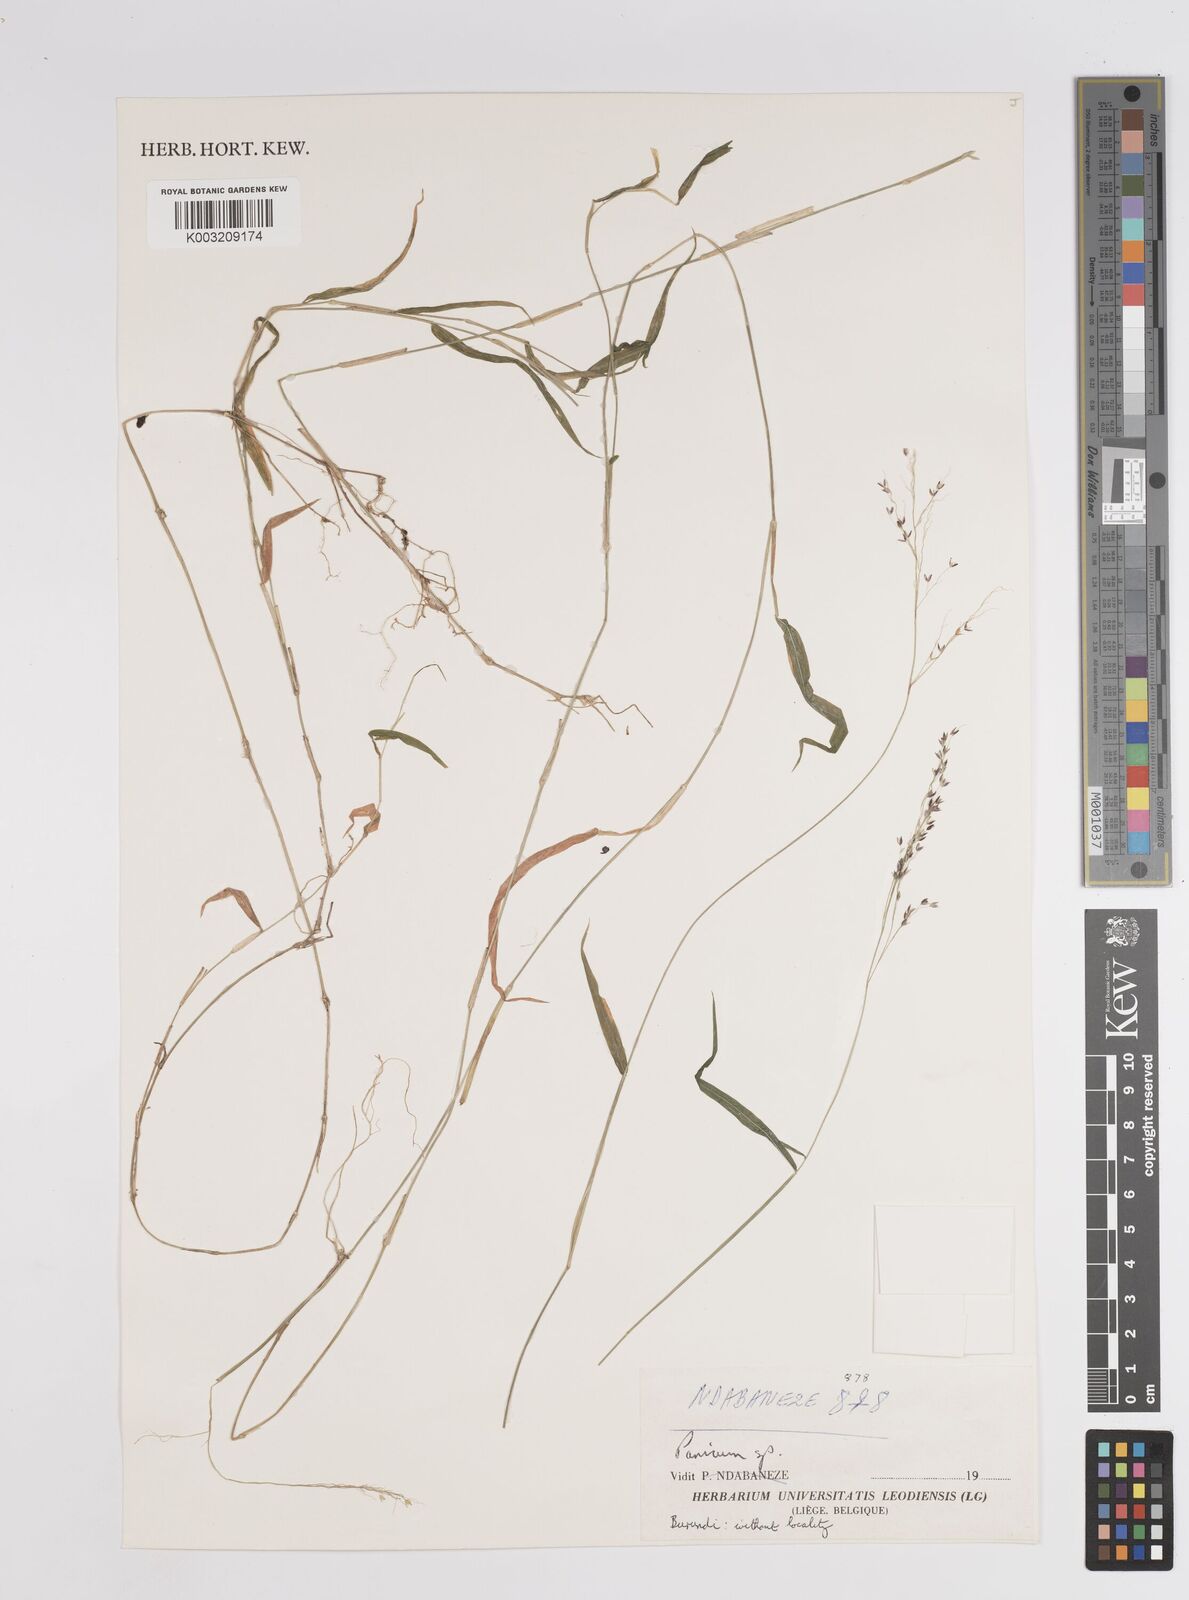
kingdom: Plantae
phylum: Tracheophyta
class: Liliopsida
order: Poales
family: Poaceae
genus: Panicum
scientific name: Panicum
